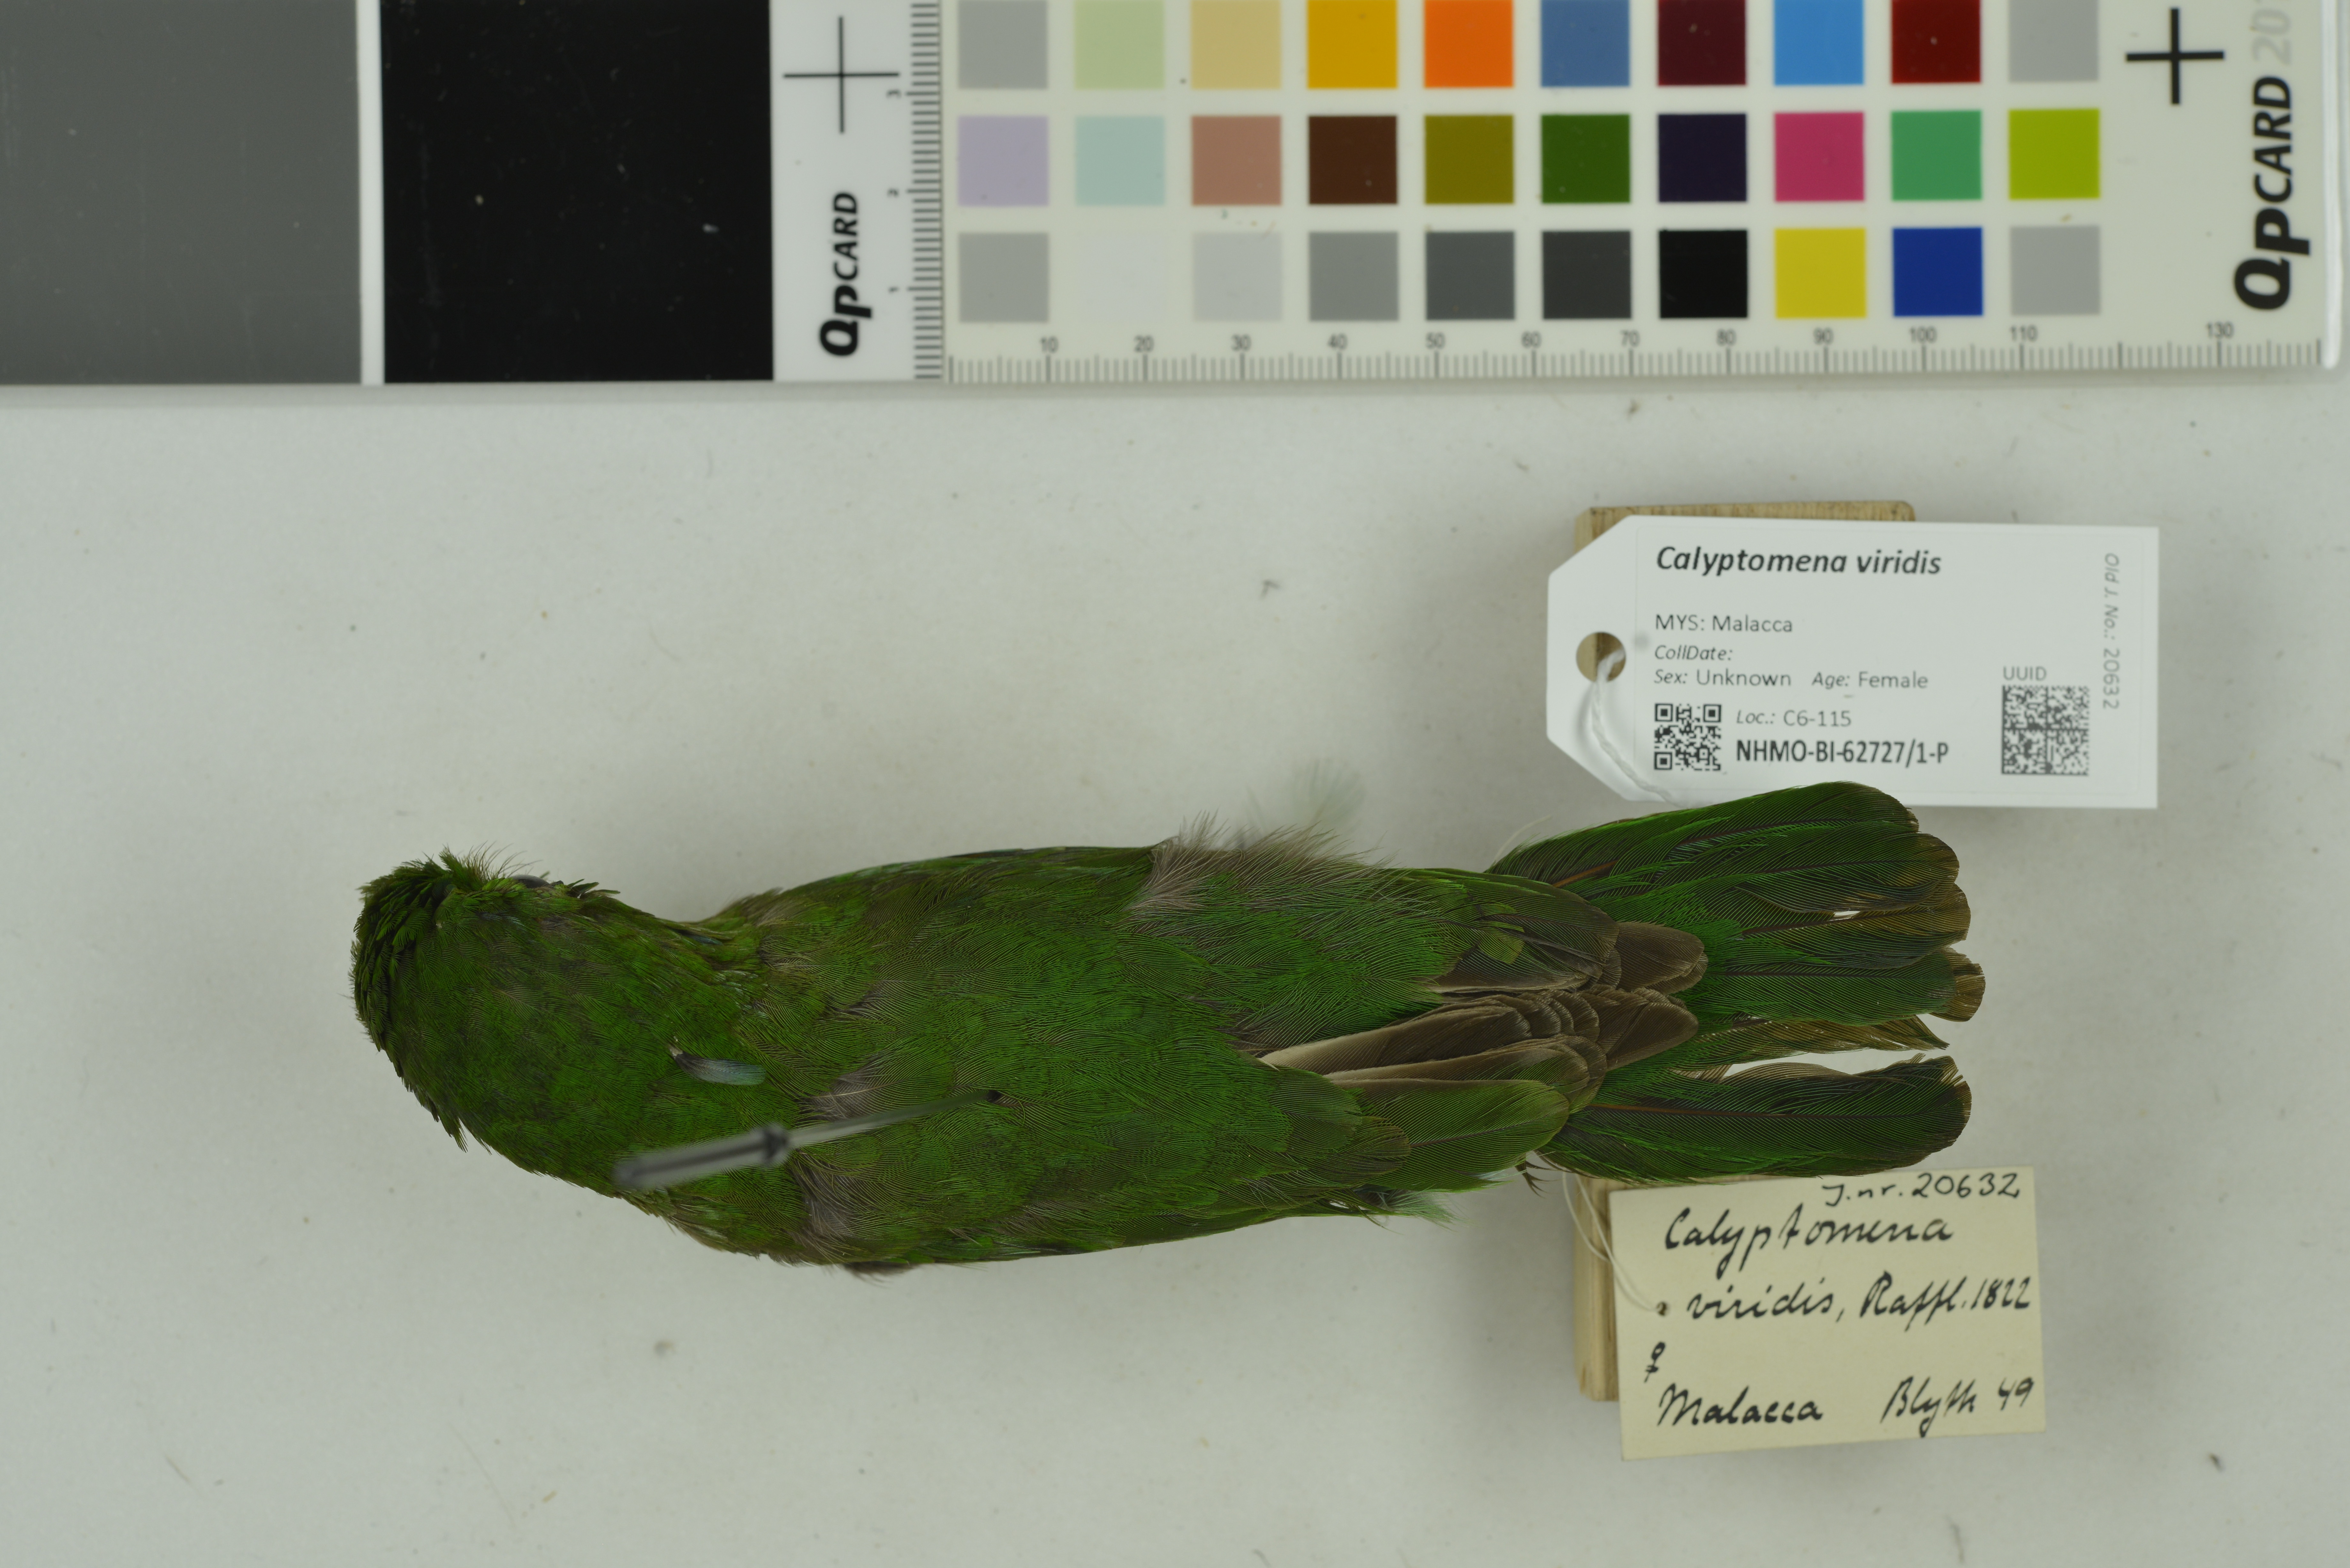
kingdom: Animalia
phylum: Chordata
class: Aves
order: Passeriformes
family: Eurylaimidae
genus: Calyptomena
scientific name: Calyptomena viridis
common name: Green broadbill
